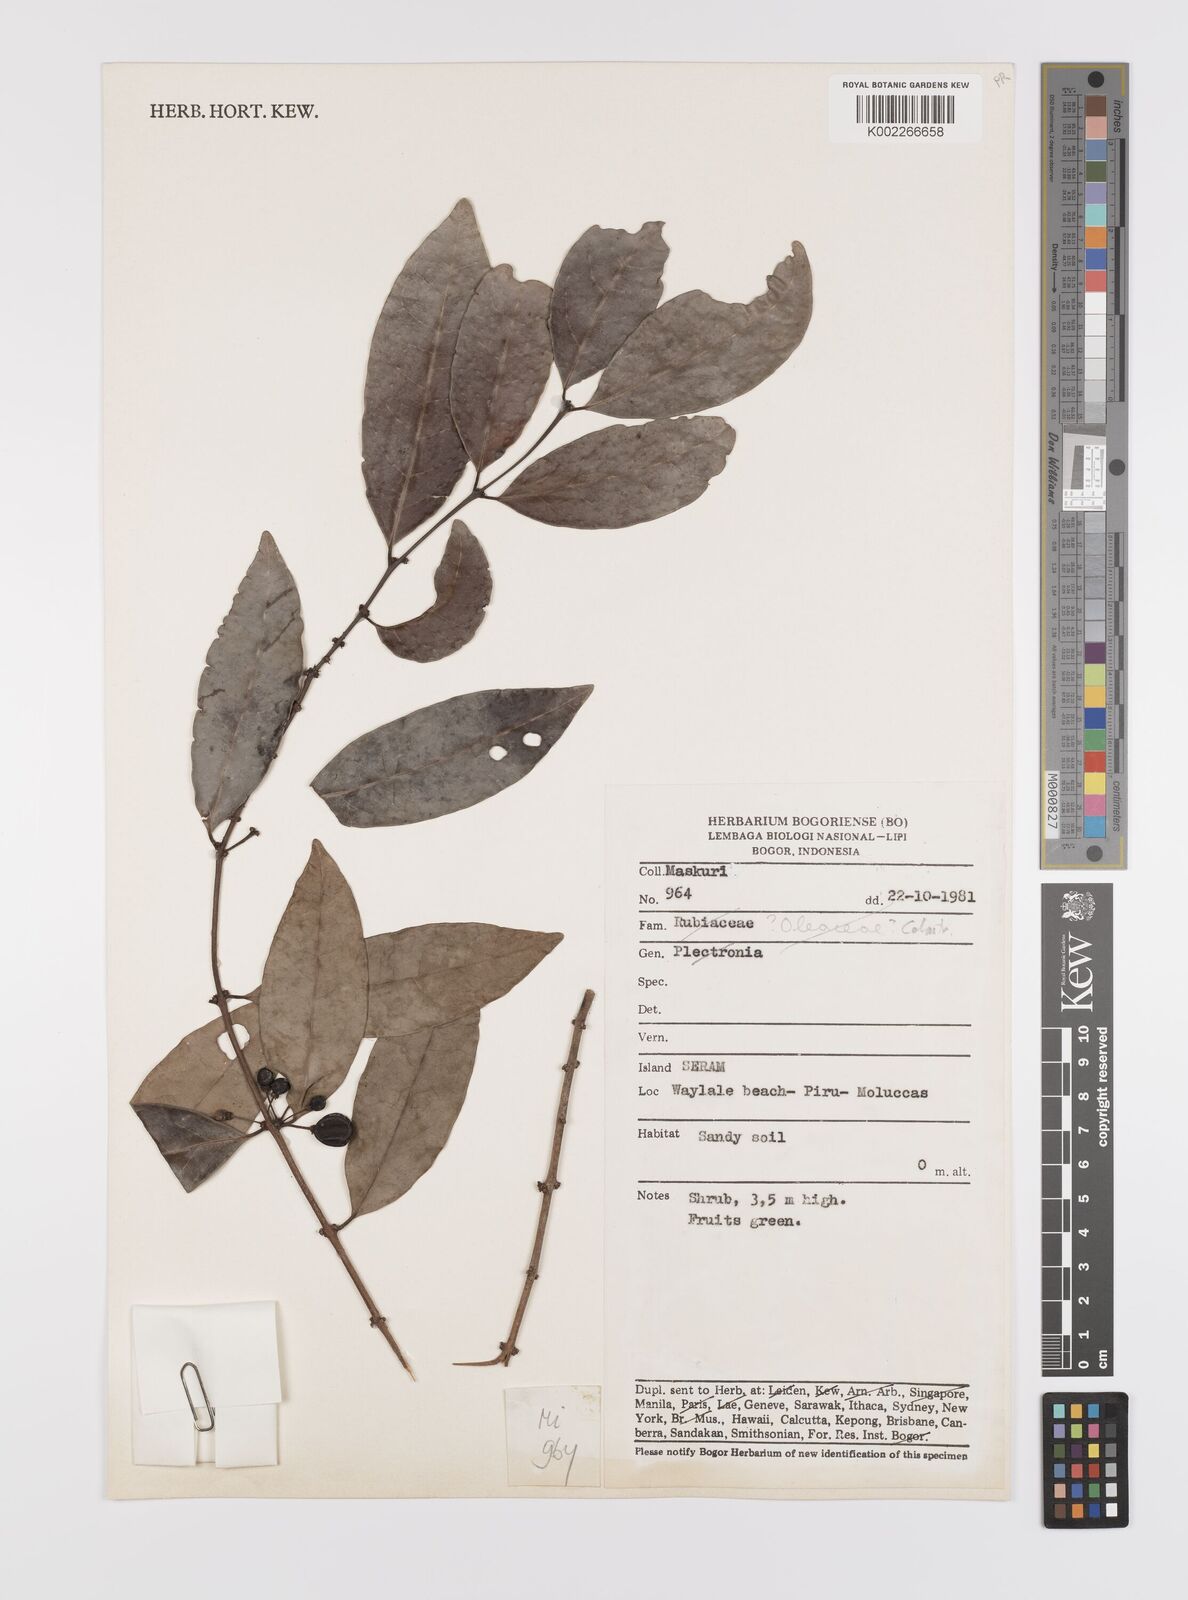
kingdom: Plantae
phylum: Tracheophyta
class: Magnoliopsida
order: Celastrales
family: Celastraceae
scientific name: Celastraceae
